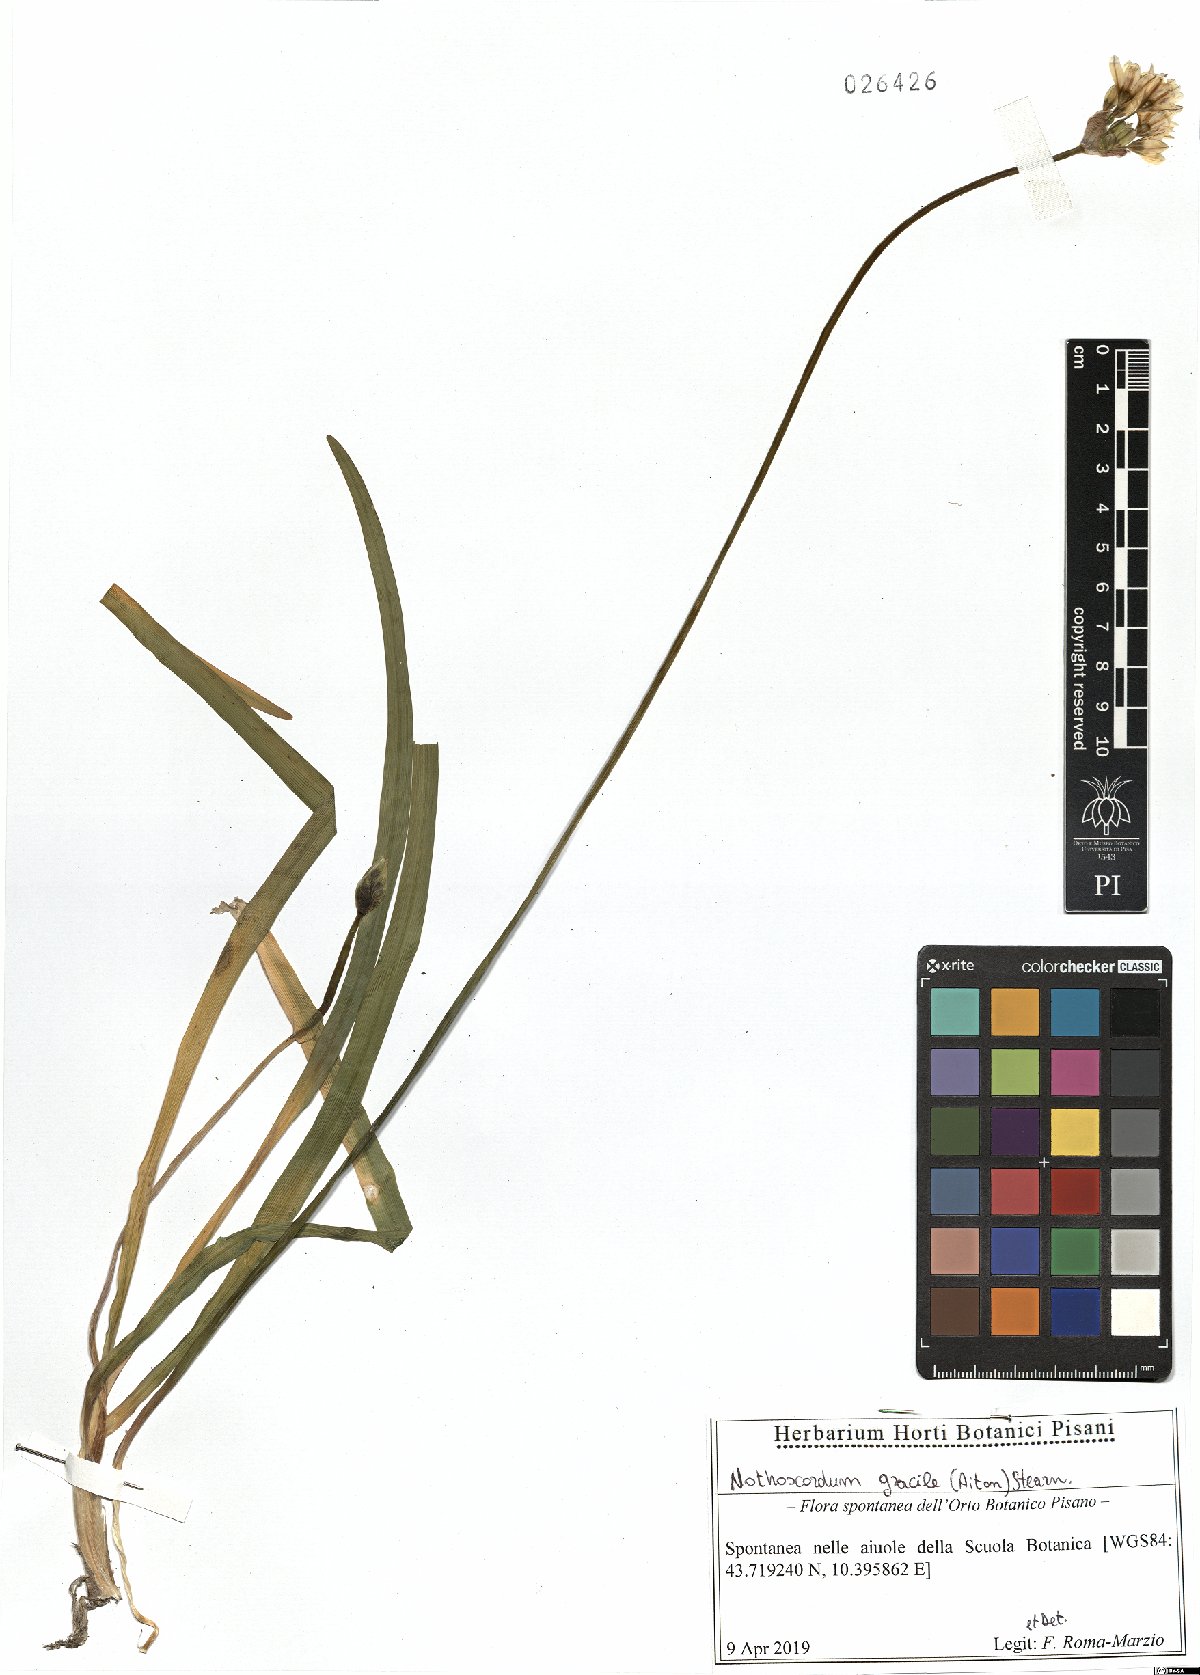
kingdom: Plantae
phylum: Tracheophyta
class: Liliopsida
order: Asparagales
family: Amaryllidaceae
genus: Nothoscordum
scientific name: Nothoscordum gracile
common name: Slender false garlic
